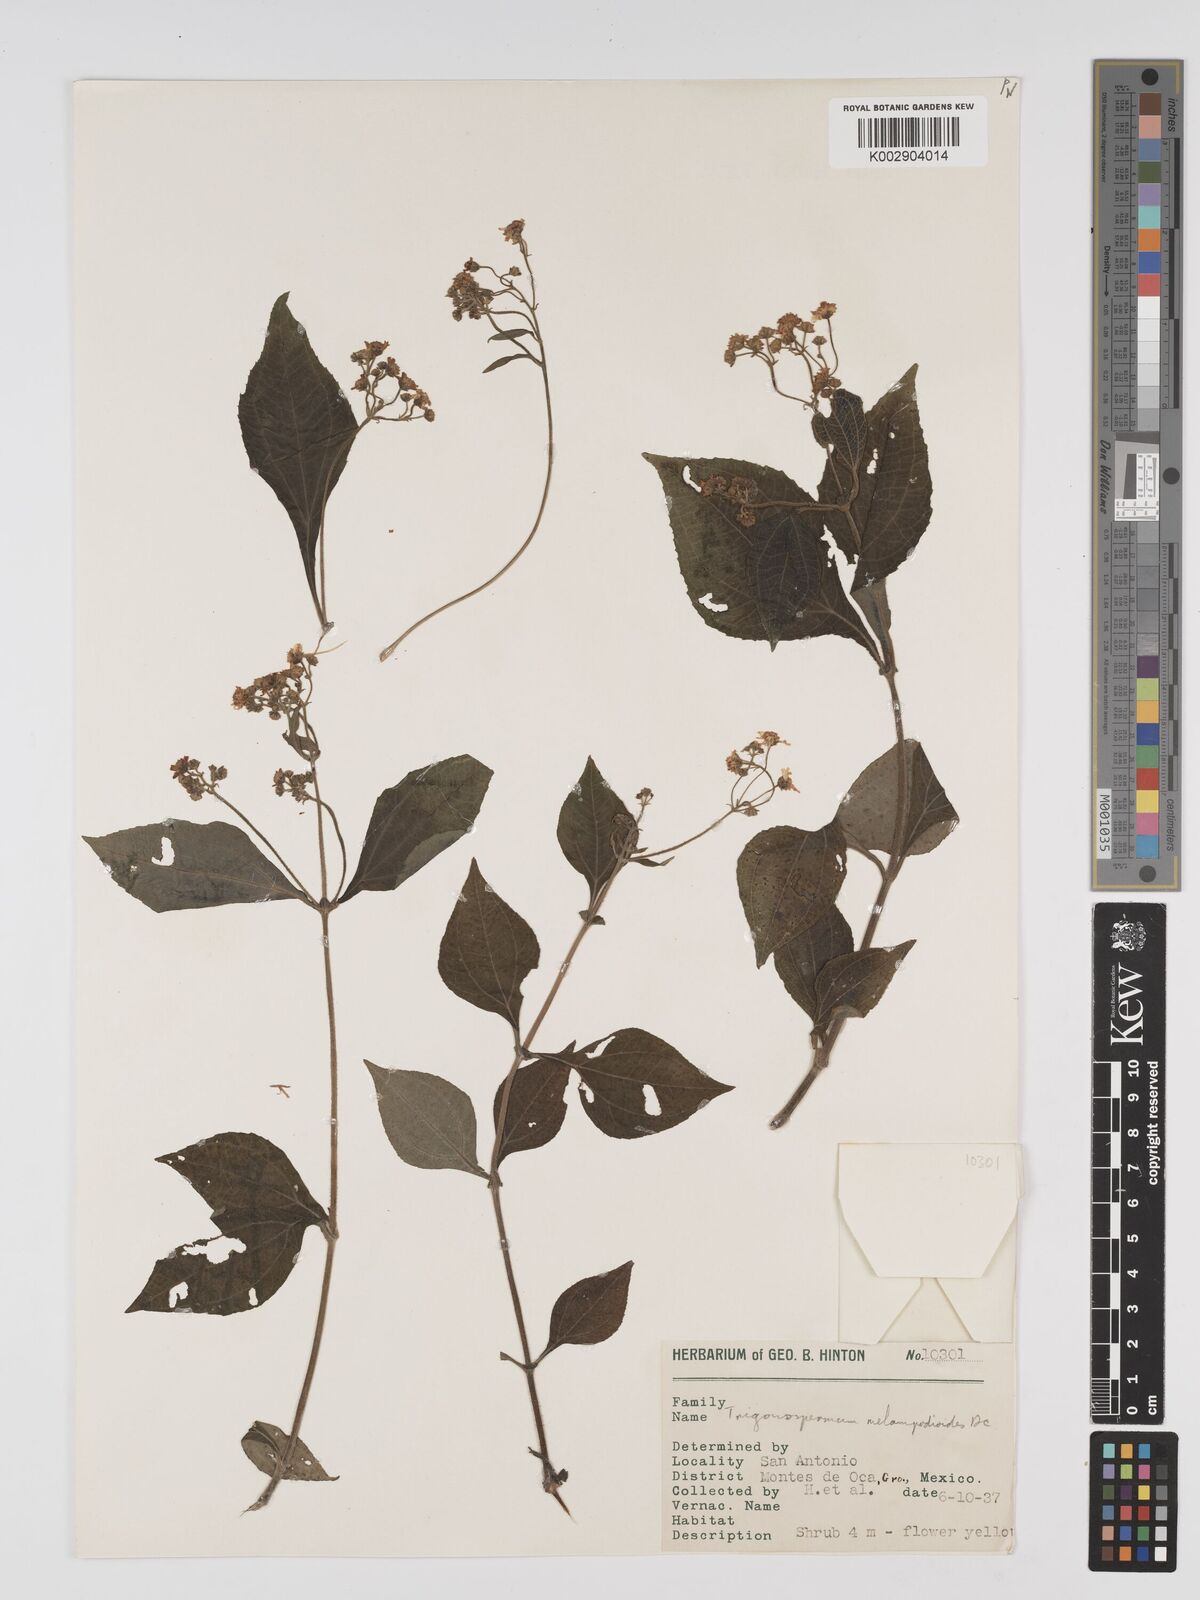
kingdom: Plantae
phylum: Tracheophyta
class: Magnoliopsida
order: Asterales
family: Asteraceae
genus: Trigonospermum
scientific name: Trigonospermum melampodioides
